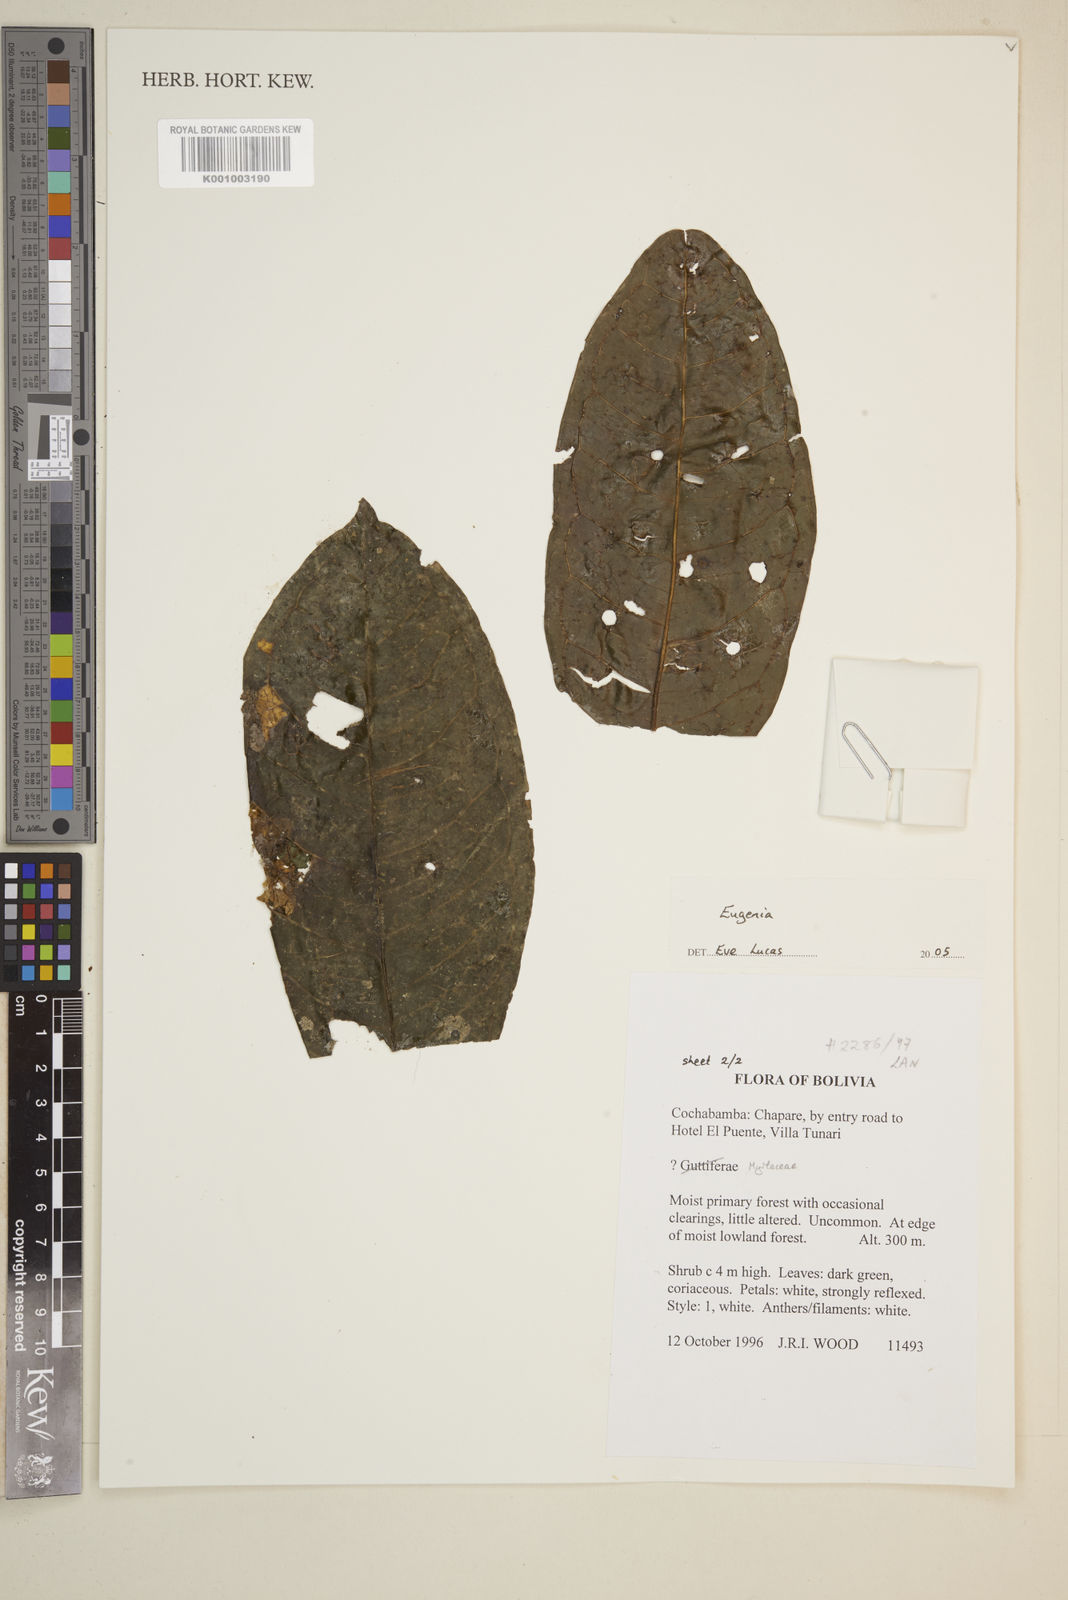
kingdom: Plantae
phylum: Tracheophyta
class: Magnoliopsida
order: Myrtales
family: Myrtaceae
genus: Eugenia
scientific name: Eugenia
